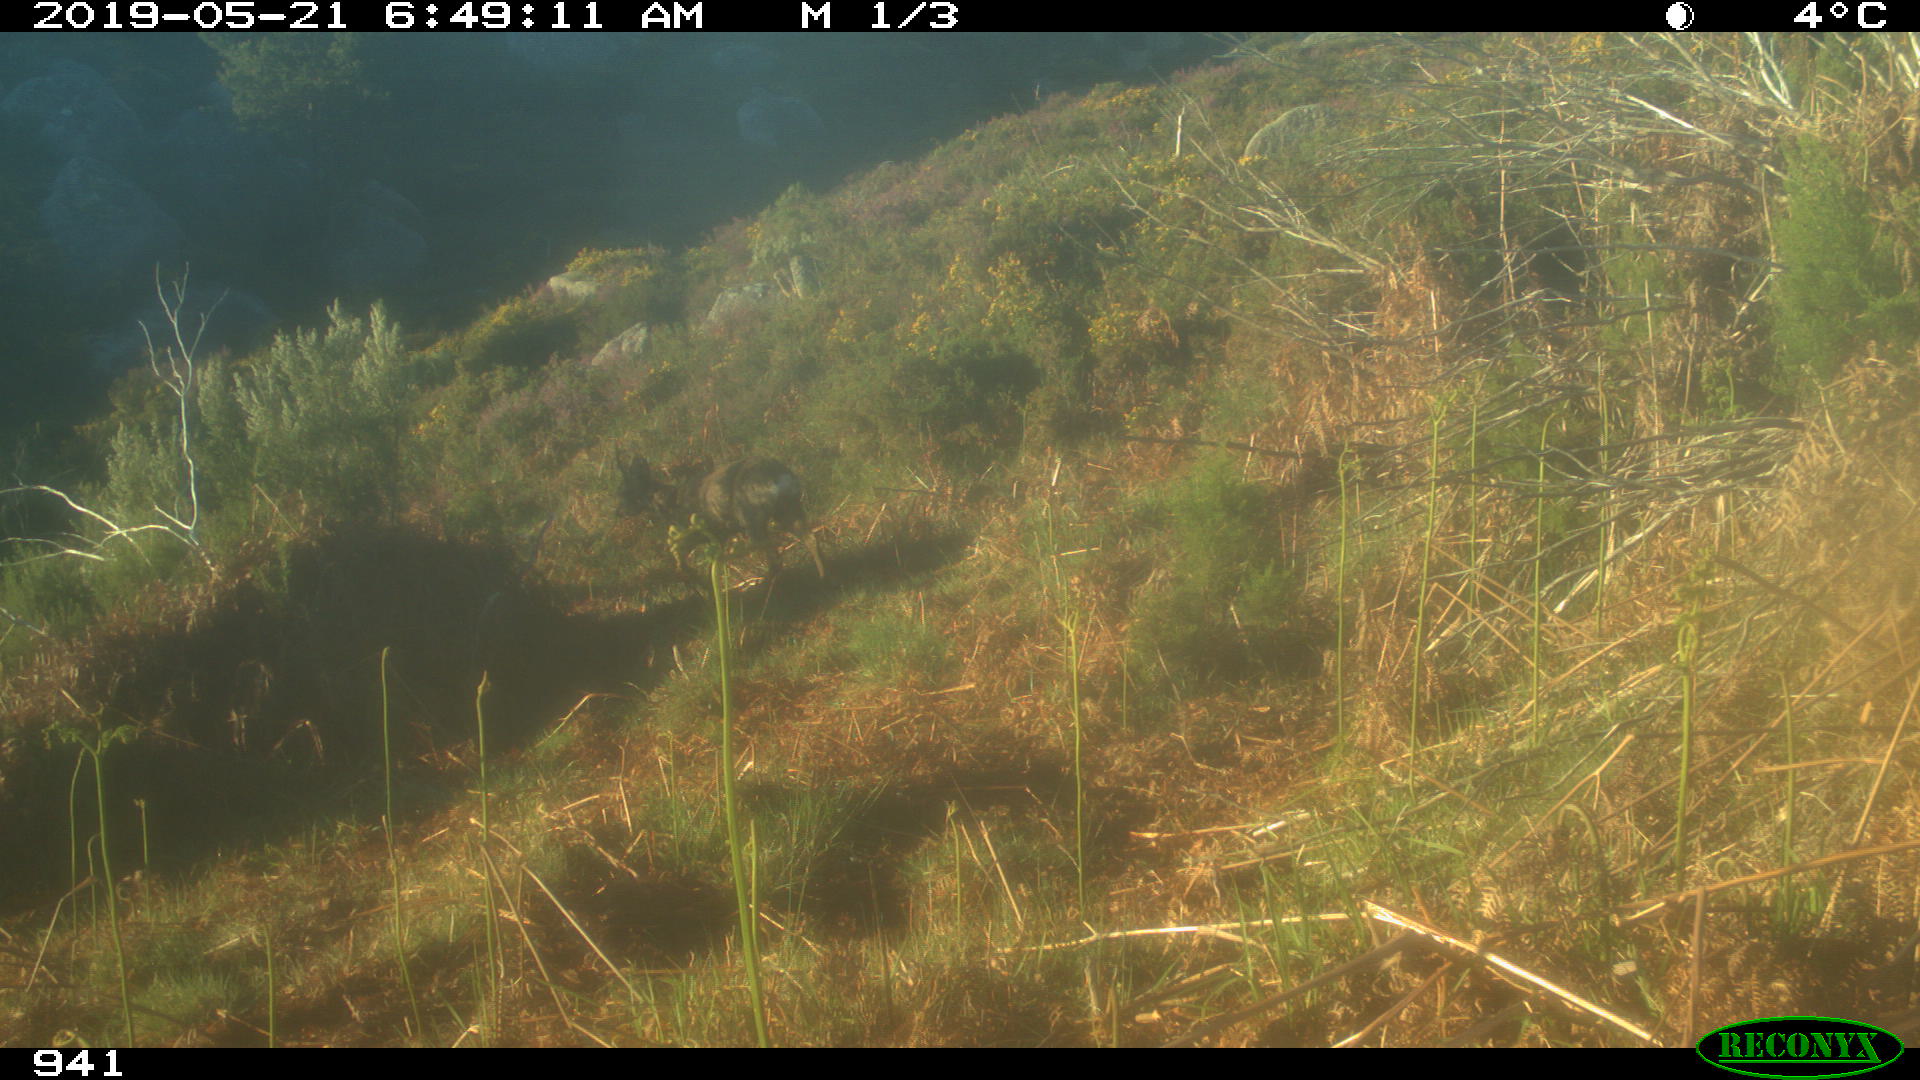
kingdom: Animalia
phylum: Chordata
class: Mammalia
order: Artiodactyla
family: Cervidae
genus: Capreolus
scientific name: Capreolus capreolus
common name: Western roe deer
